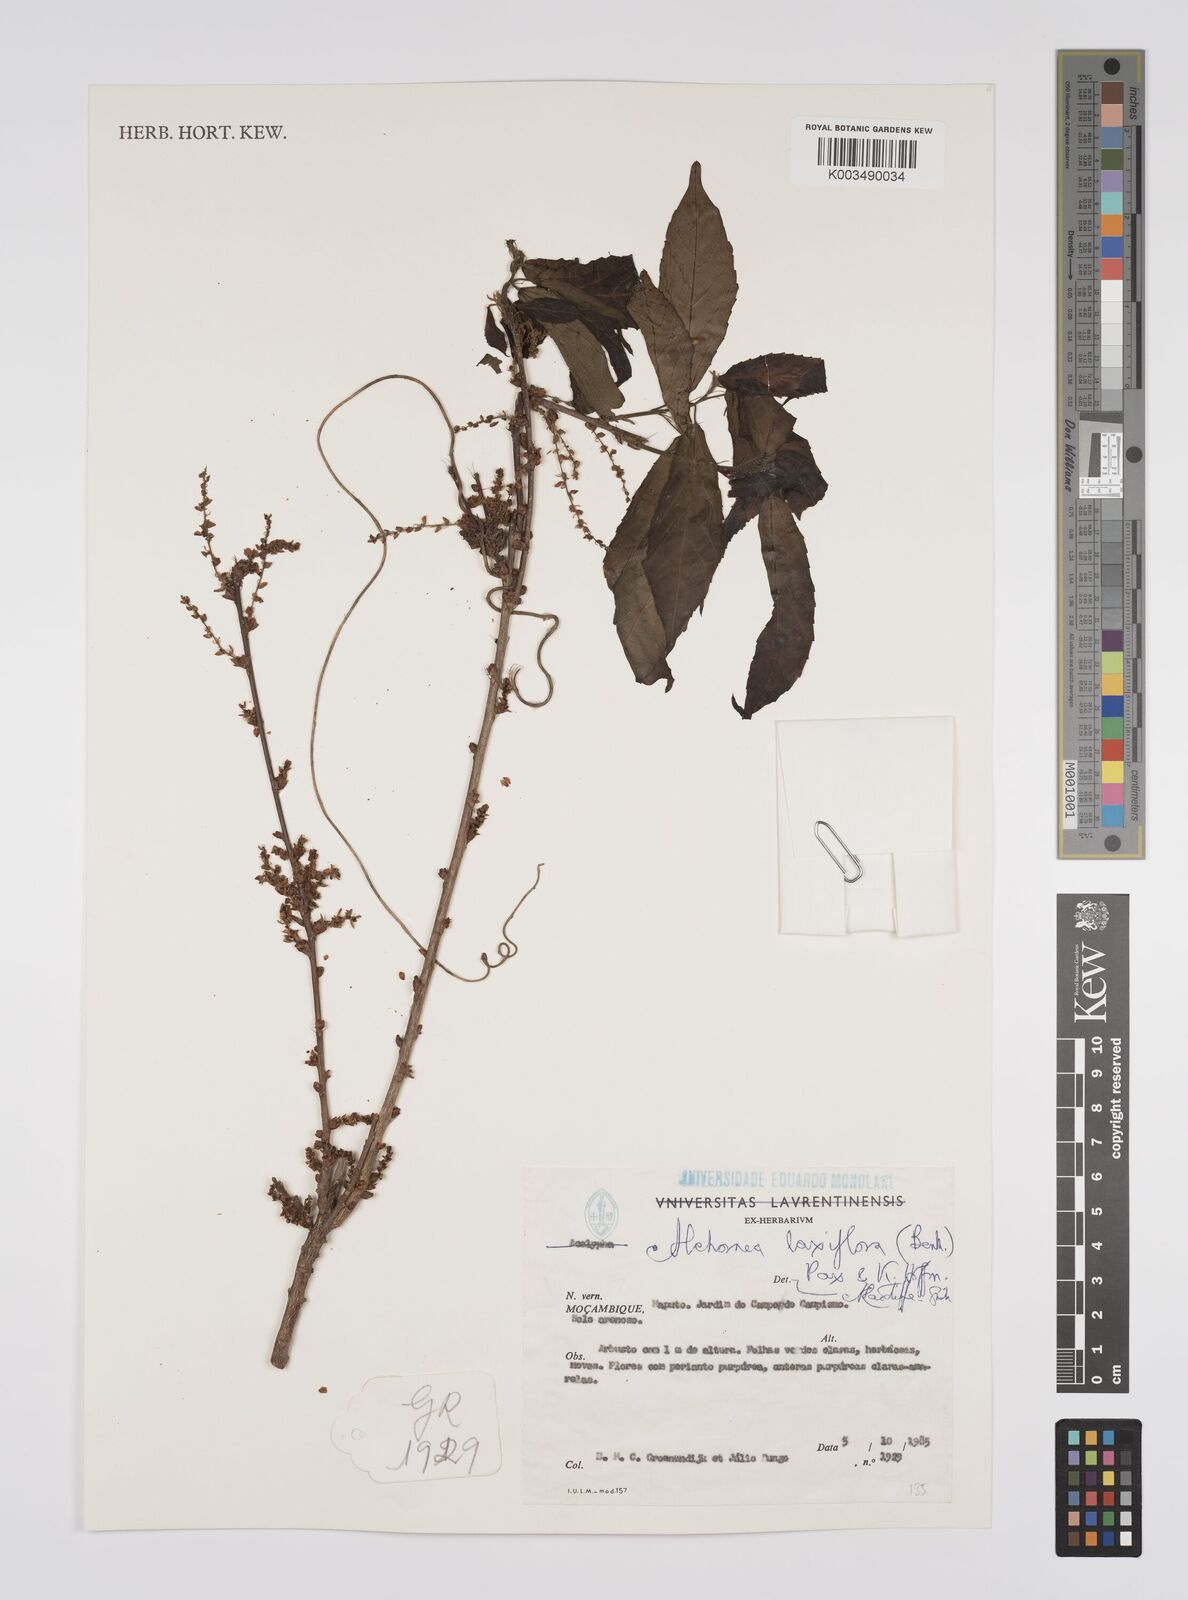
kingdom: Plantae
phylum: Tracheophyta
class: Magnoliopsida
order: Malpighiales
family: Euphorbiaceae
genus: Alchornea
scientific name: Alchornea laxiflora
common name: Lowveld bead-string
